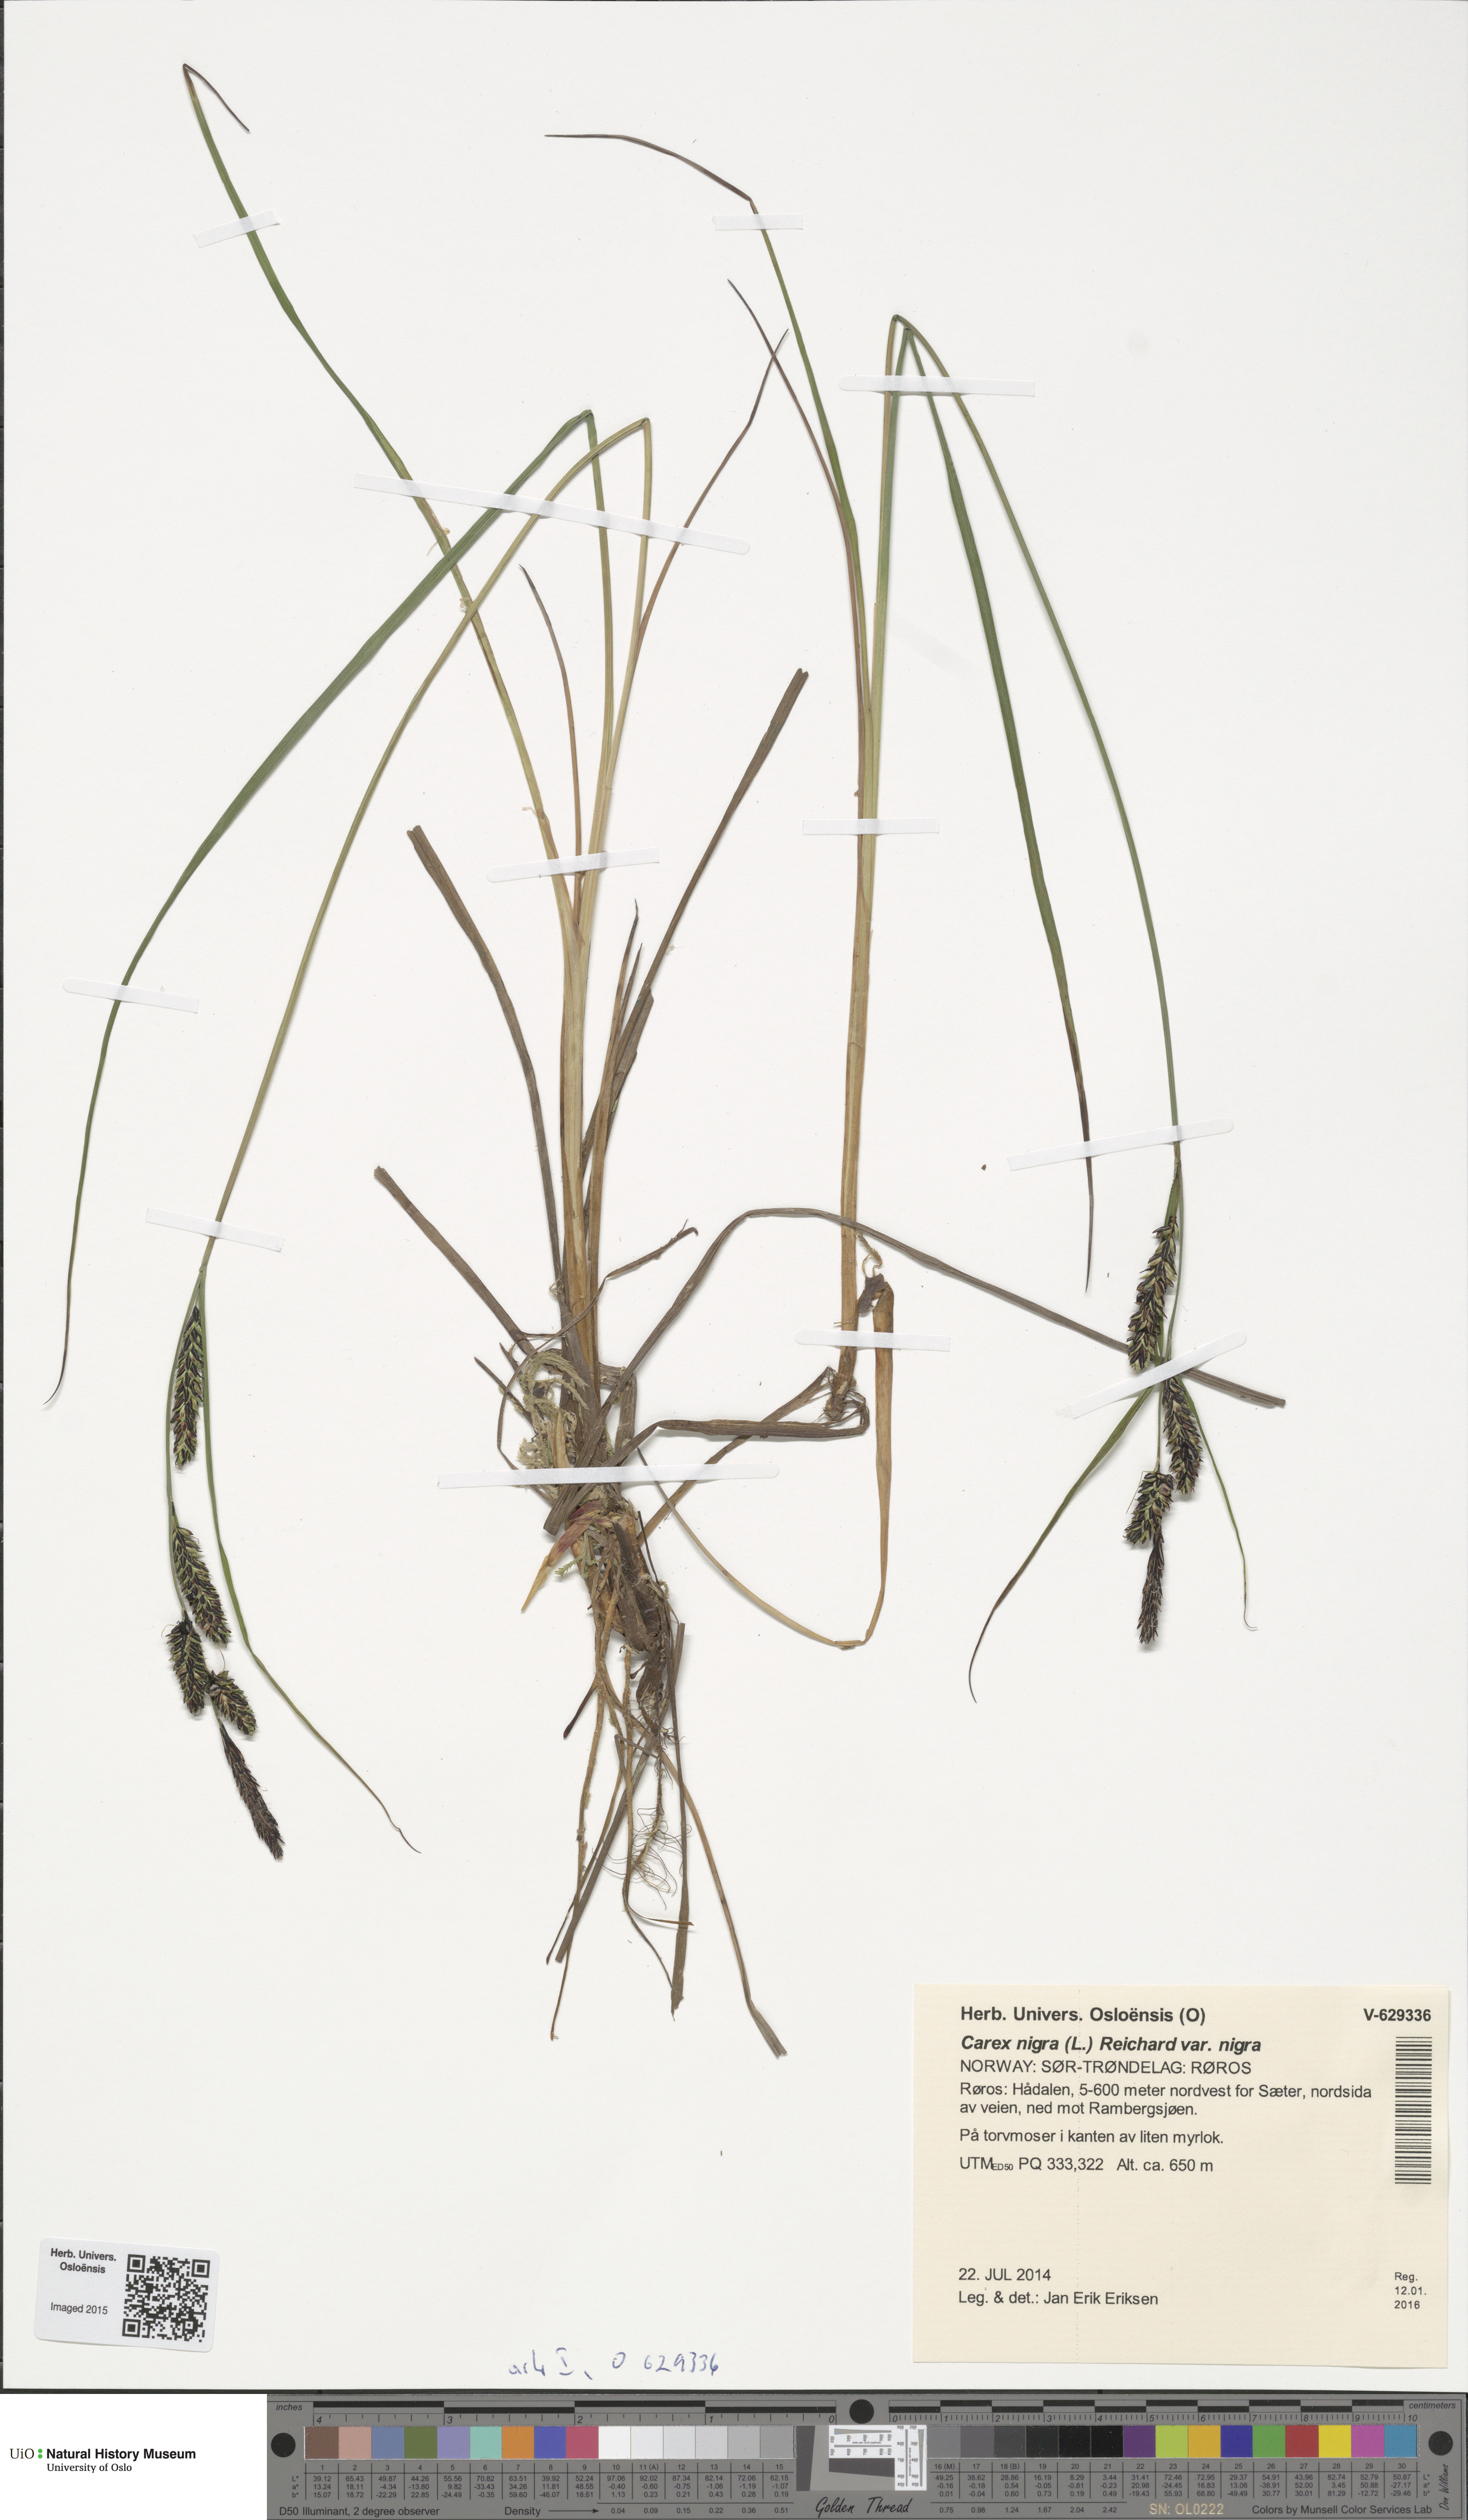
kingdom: Plantae
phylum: Tracheophyta
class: Liliopsida
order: Poales
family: Cyperaceae
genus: Carex
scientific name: Carex nigra
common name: Common sedge
